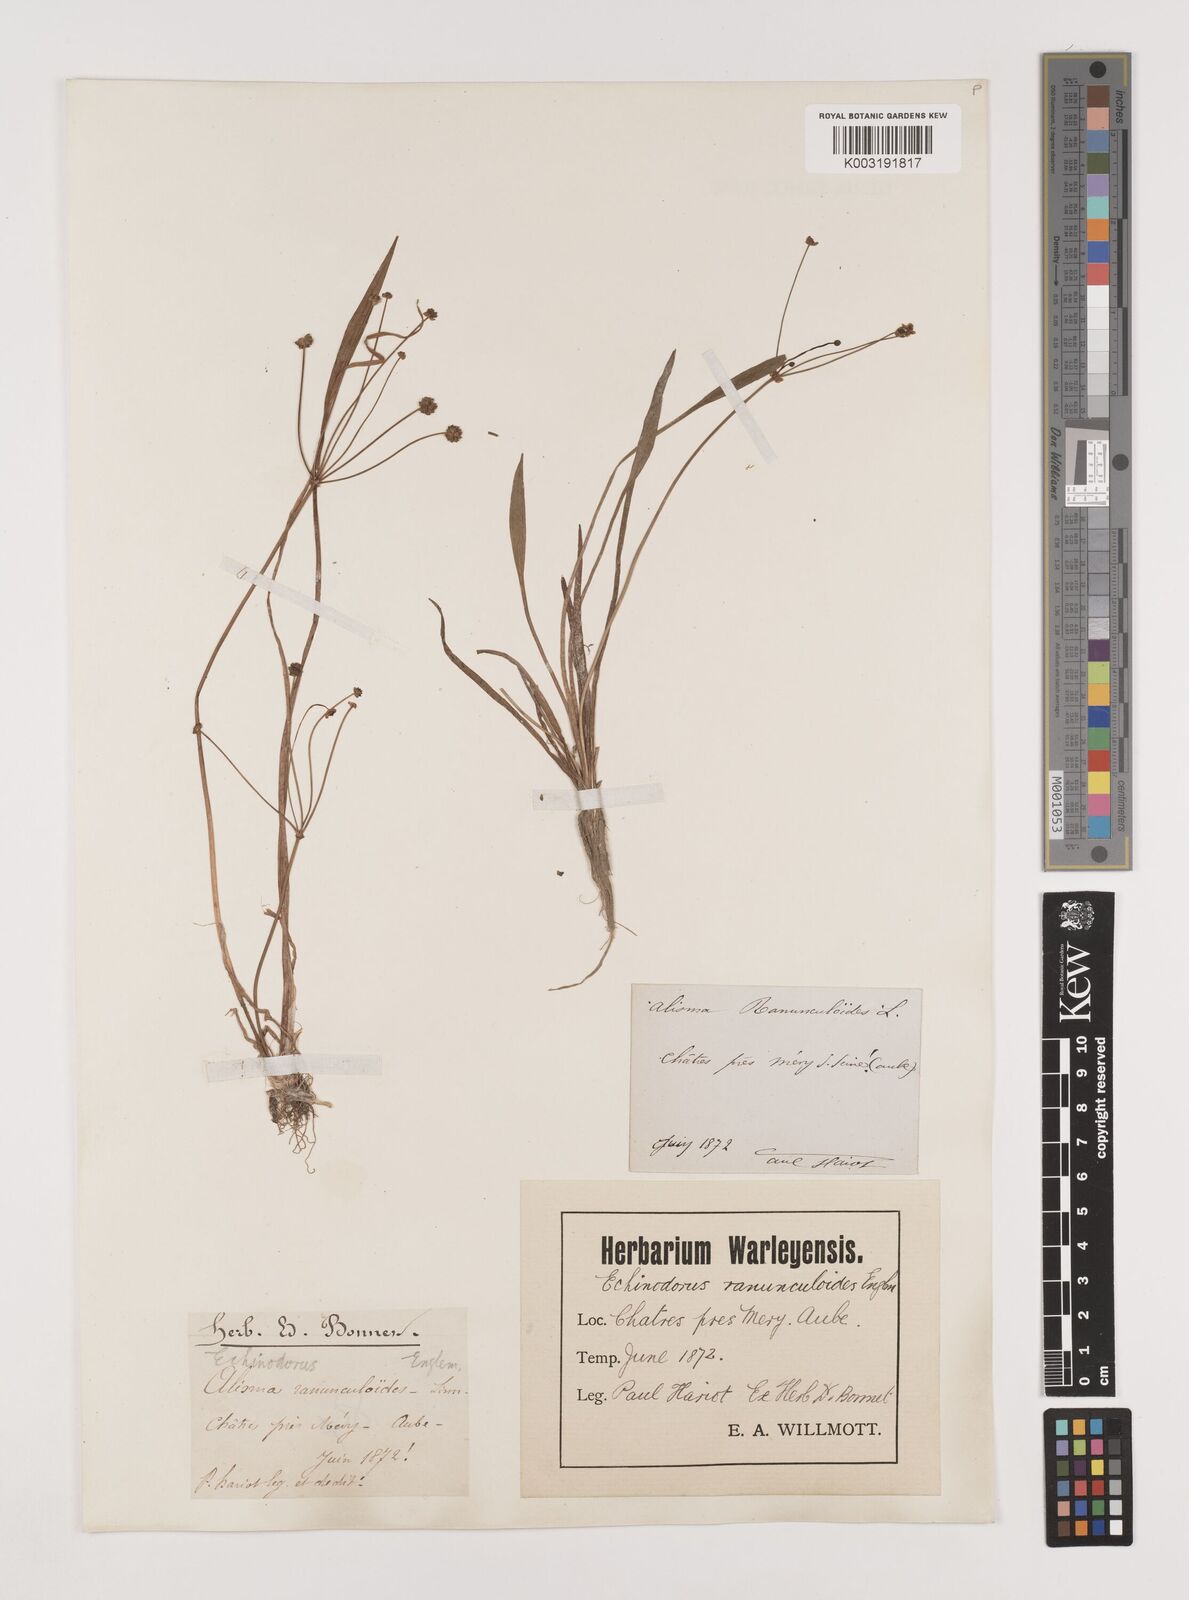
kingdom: Plantae
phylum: Tracheophyta
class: Liliopsida
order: Alismatales
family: Alismataceae
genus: Baldellia
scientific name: Baldellia ranunculoides
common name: Lesser water-plantain
